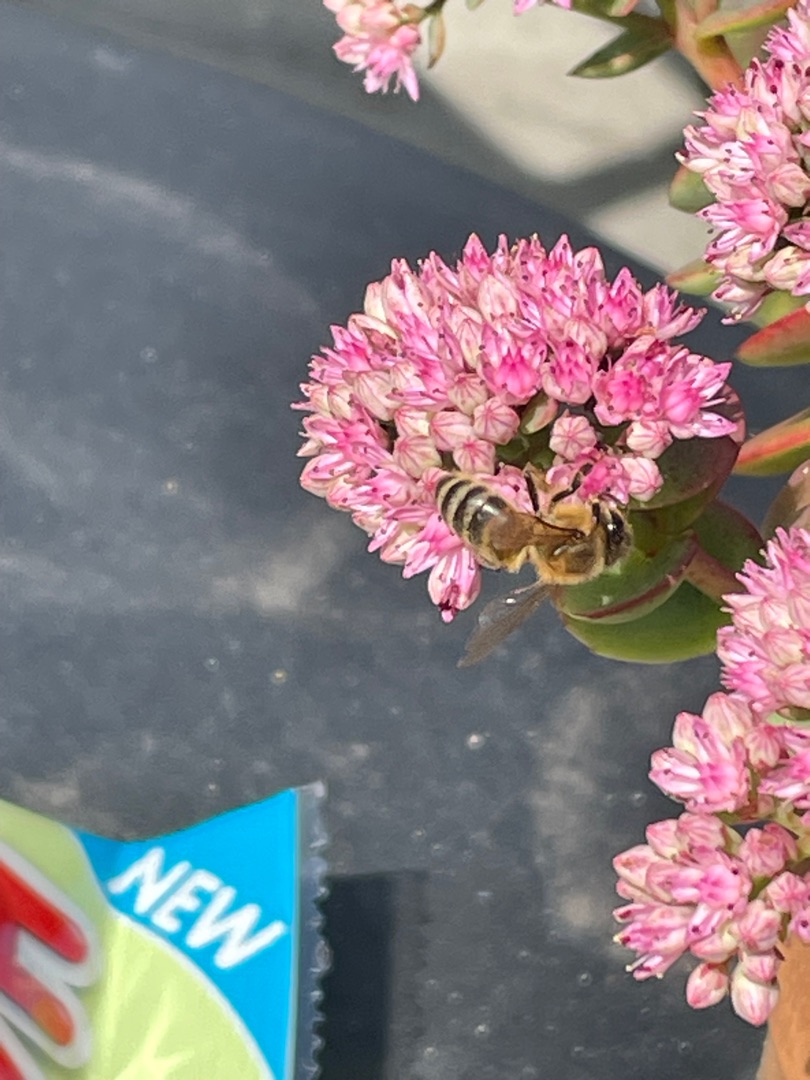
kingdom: Animalia
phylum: Arthropoda
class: Insecta
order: Hymenoptera
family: Apidae
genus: Apis
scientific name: Apis mellifera
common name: Honningbi
